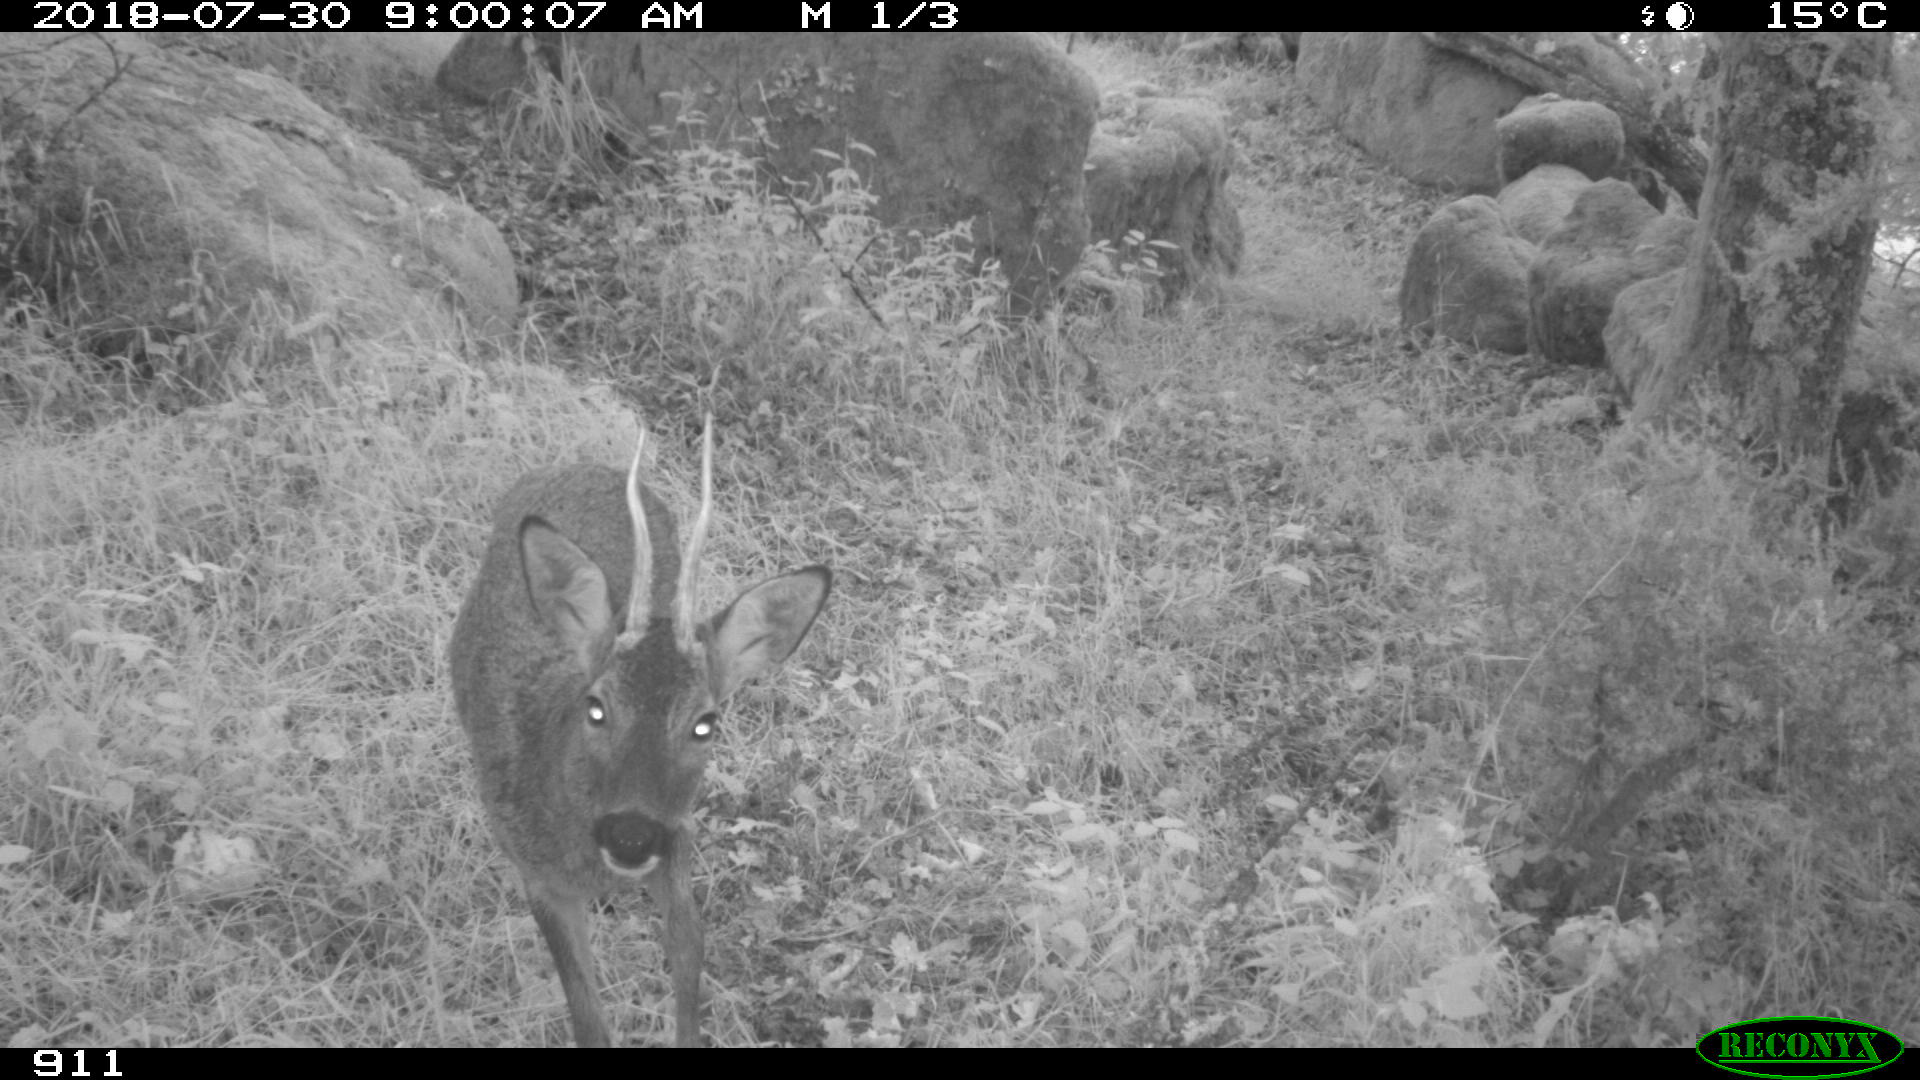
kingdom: Animalia
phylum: Chordata
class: Mammalia
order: Artiodactyla
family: Cervidae
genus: Capreolus
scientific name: Capreolus capreolus
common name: Western roe deer
